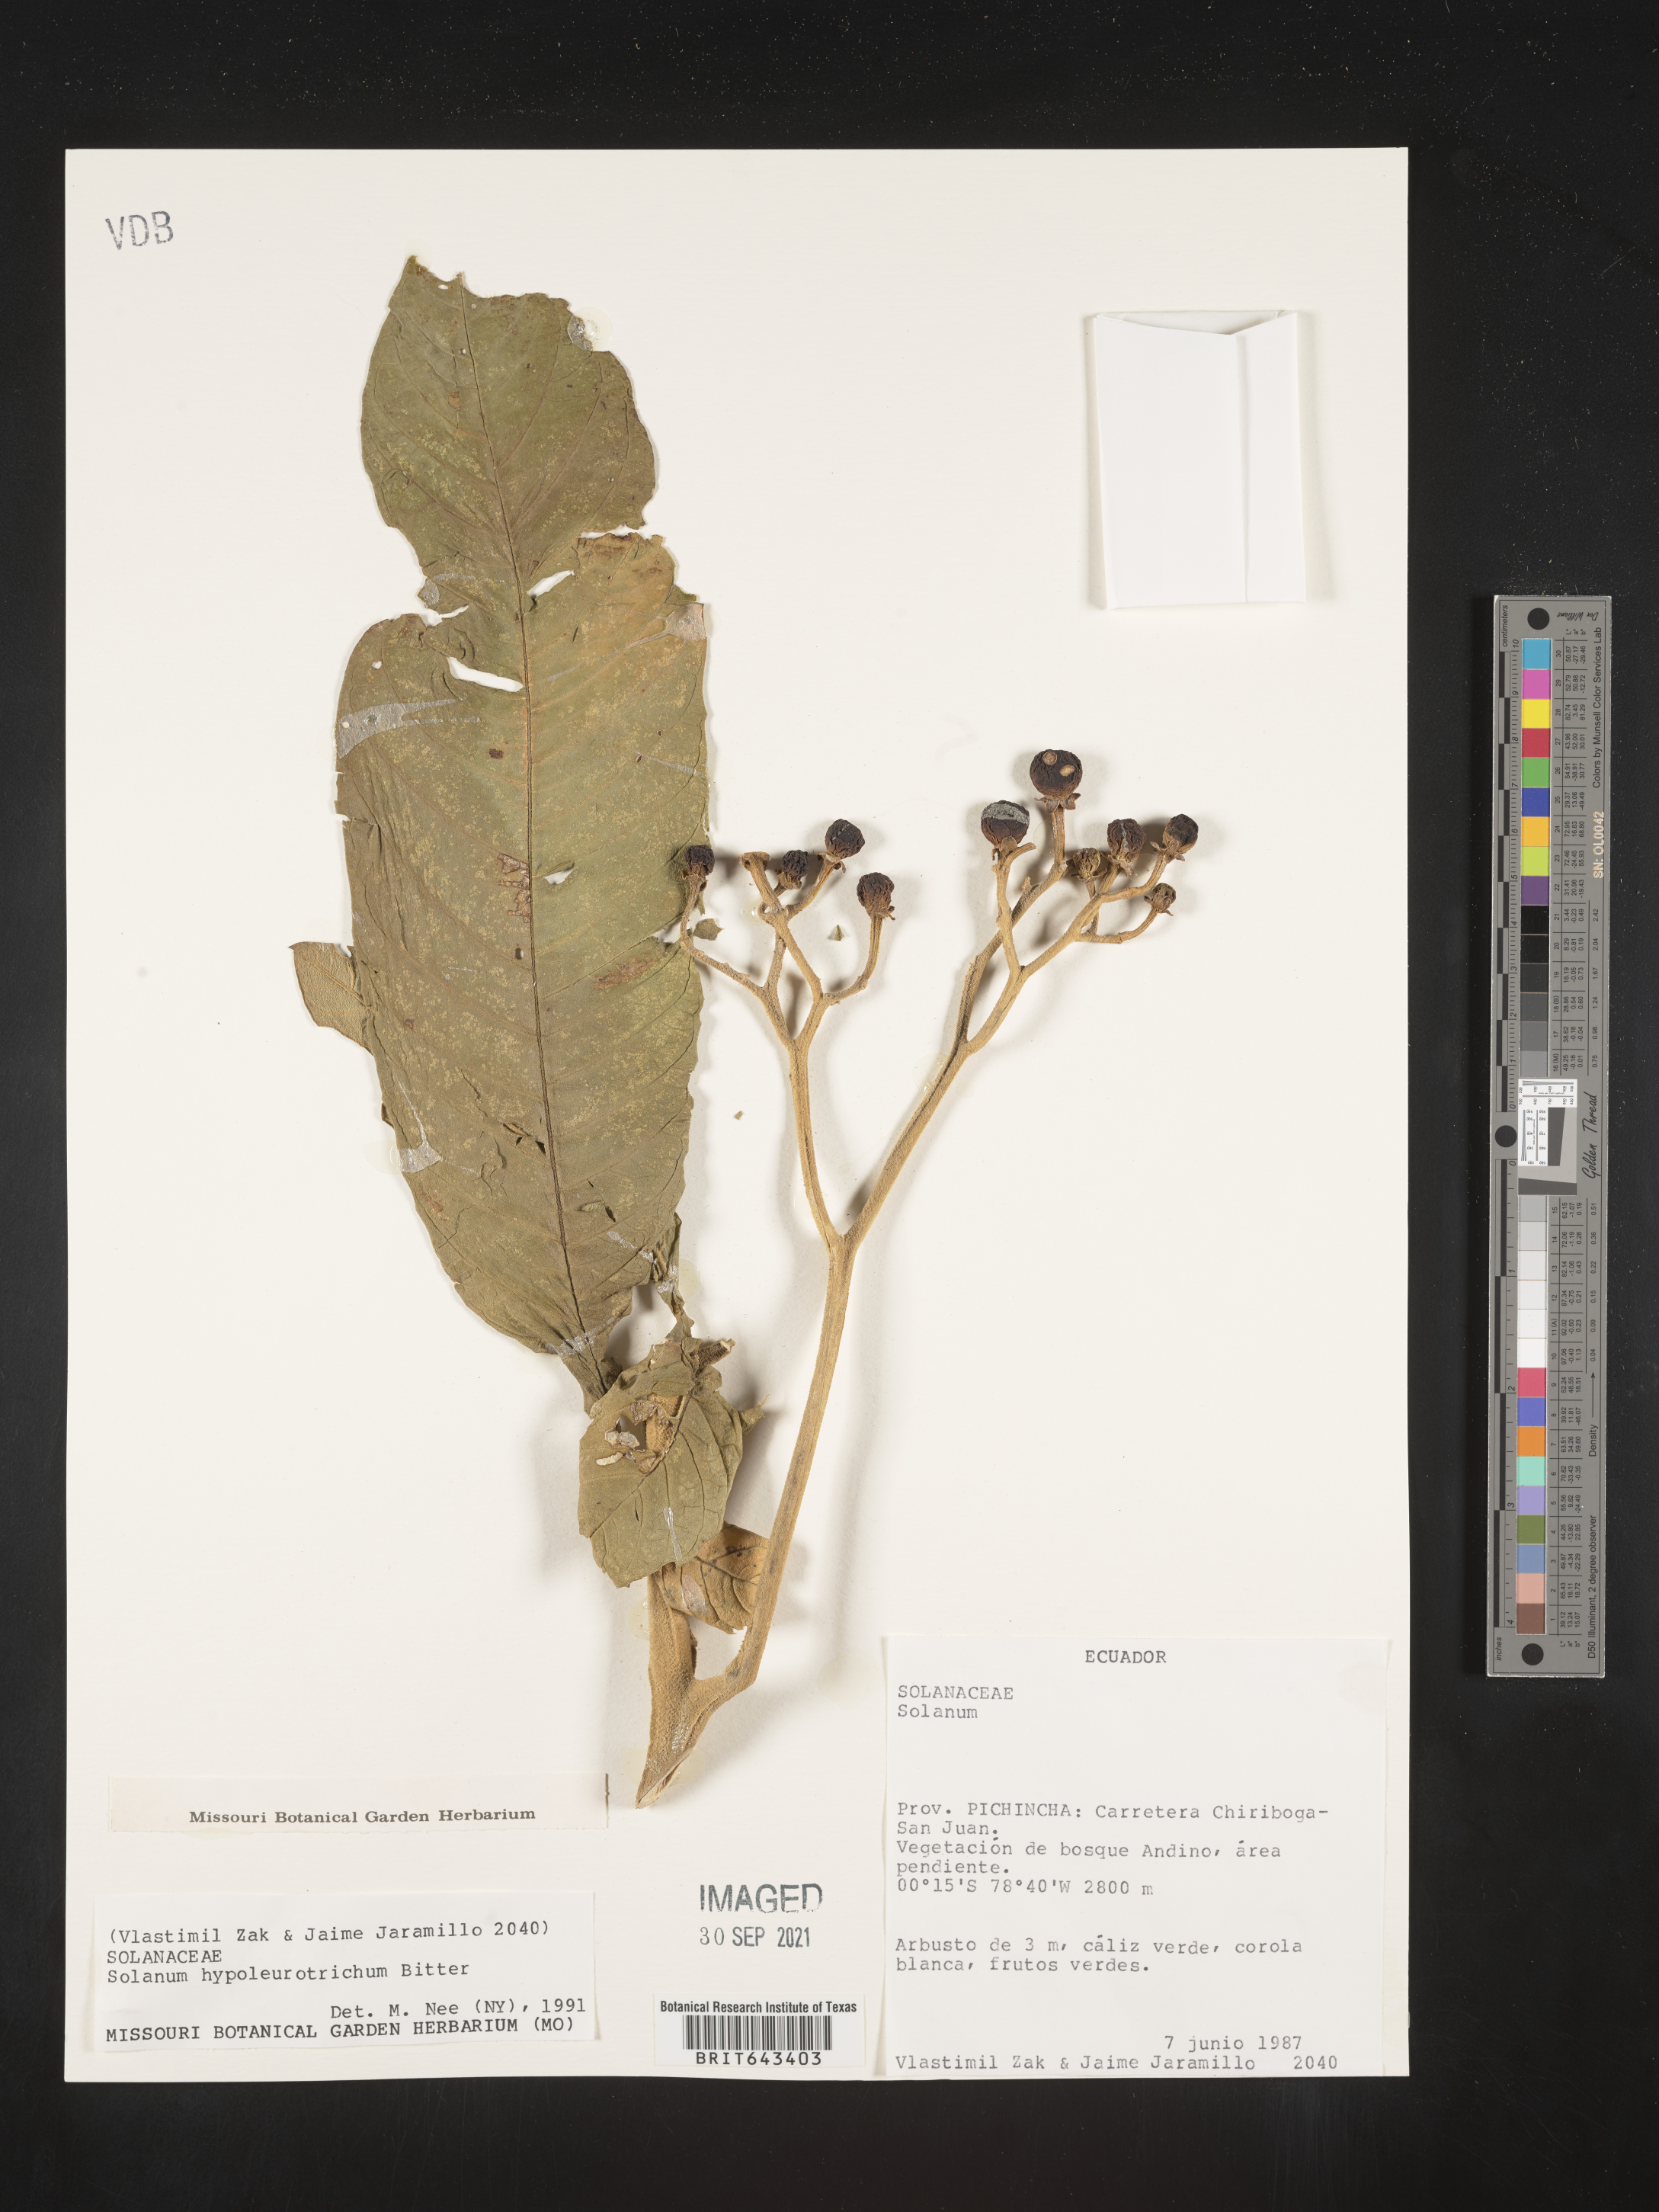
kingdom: Plantae
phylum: Tracheophyta
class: Magnoliopsida
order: Solanales
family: Solanaceae
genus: Solanum
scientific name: Solanum
